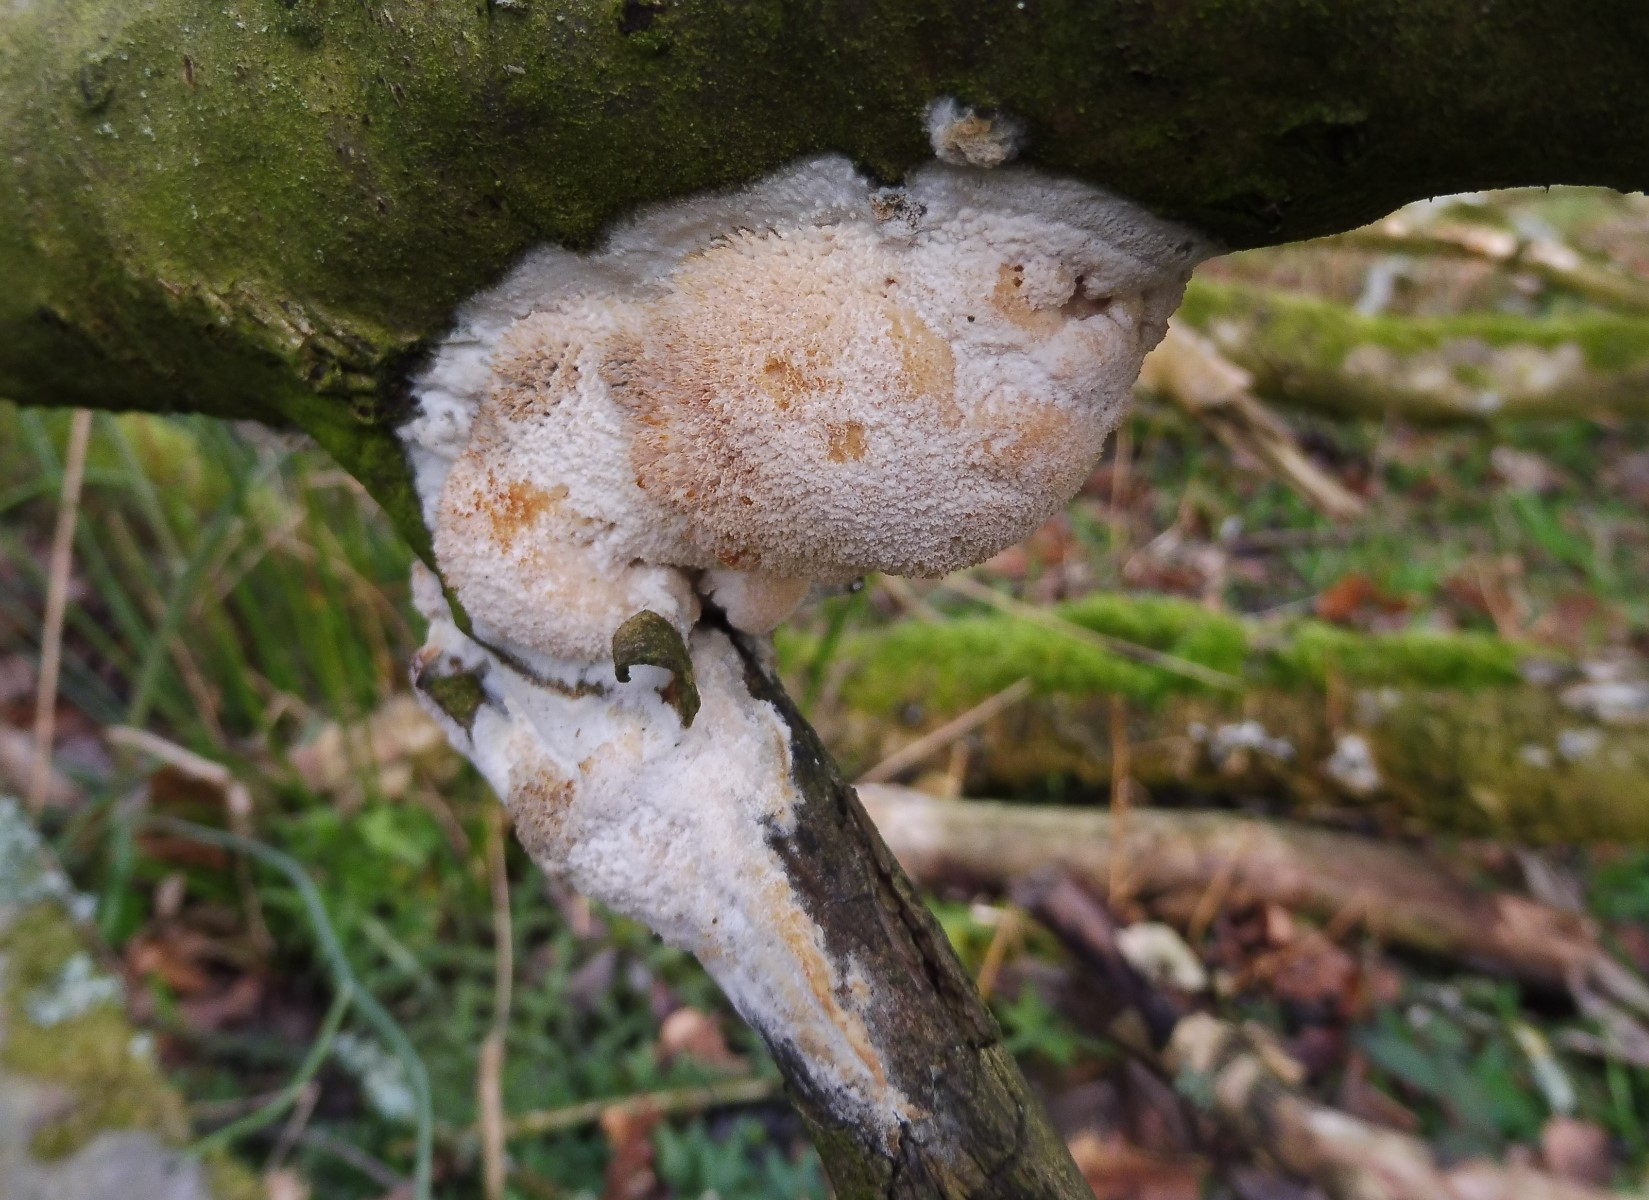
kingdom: Fungi
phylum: Basidiomycota
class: Agaricomycetes
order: Hymenochaetales
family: Schizoporaceae
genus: Xylodon
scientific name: Xylodon radula
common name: grovtandet kalkskind
